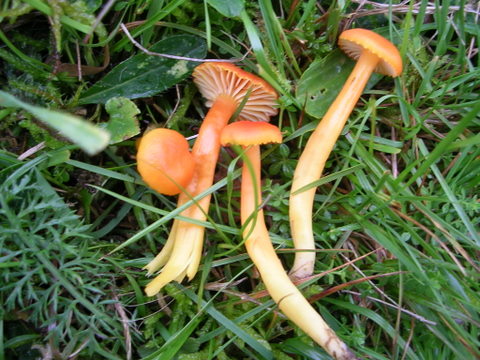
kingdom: Fungi
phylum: Basidiomycota
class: Agaricomycetes
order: Agaricales
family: Hygrophoraceae
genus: Hygrocybe
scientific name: Hygrocybe reidii
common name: honning-vokshat
